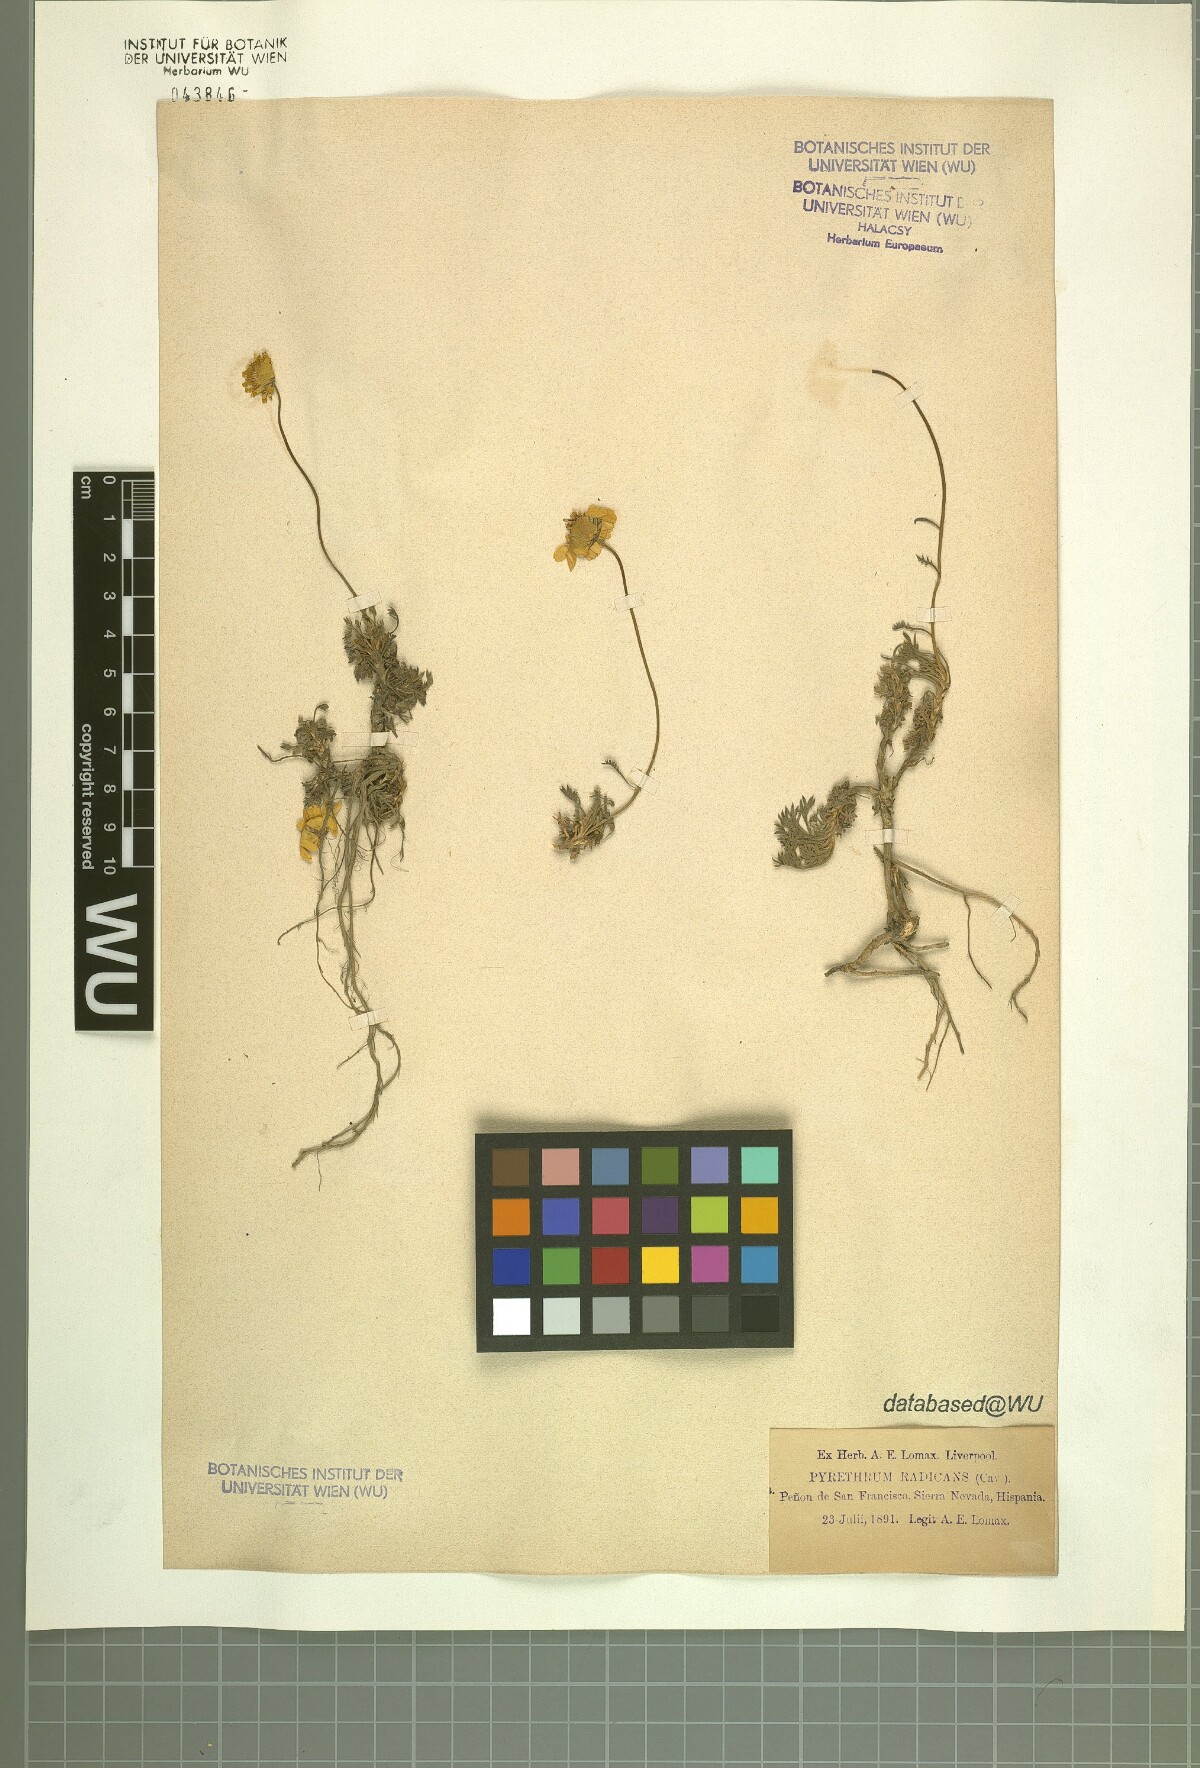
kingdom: Plantae
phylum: Tracheophyta
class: Magnoliopsida
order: Asterales
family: Asteraceae
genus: Leucanthemopsis
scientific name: Leucanthemopsis pectinata
